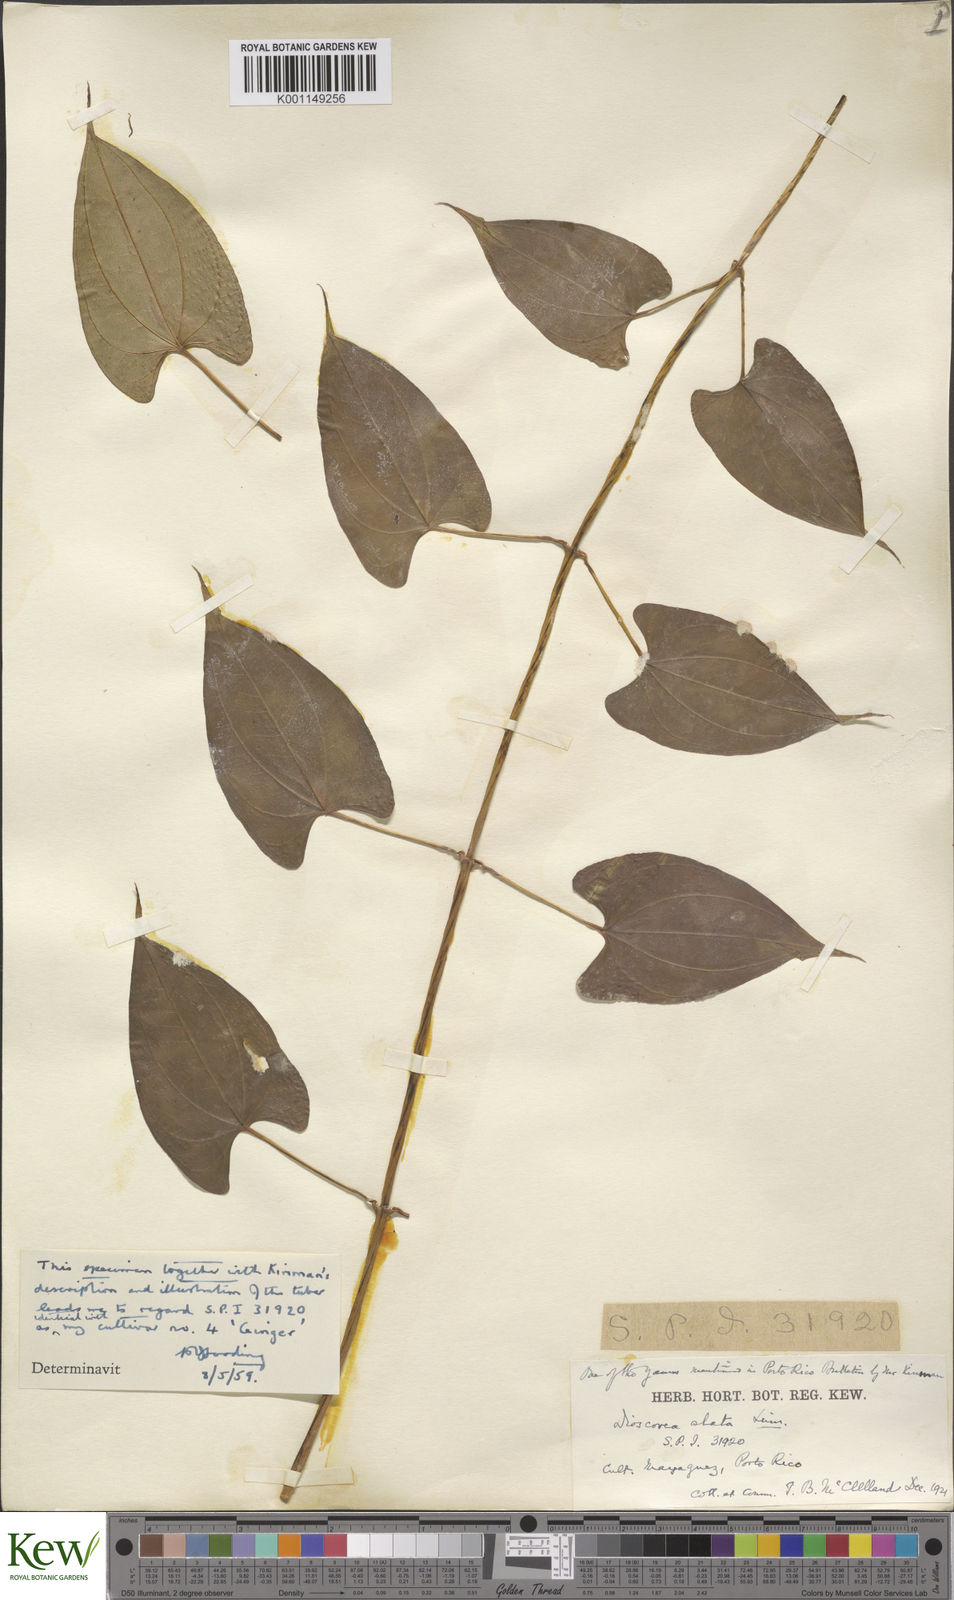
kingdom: Plantae
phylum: Tracheophyta
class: Liliopsida
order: Dioscoreales
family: Dioscoreaceae
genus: Dioscorea
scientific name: Dioscorea alata
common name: Water yam
